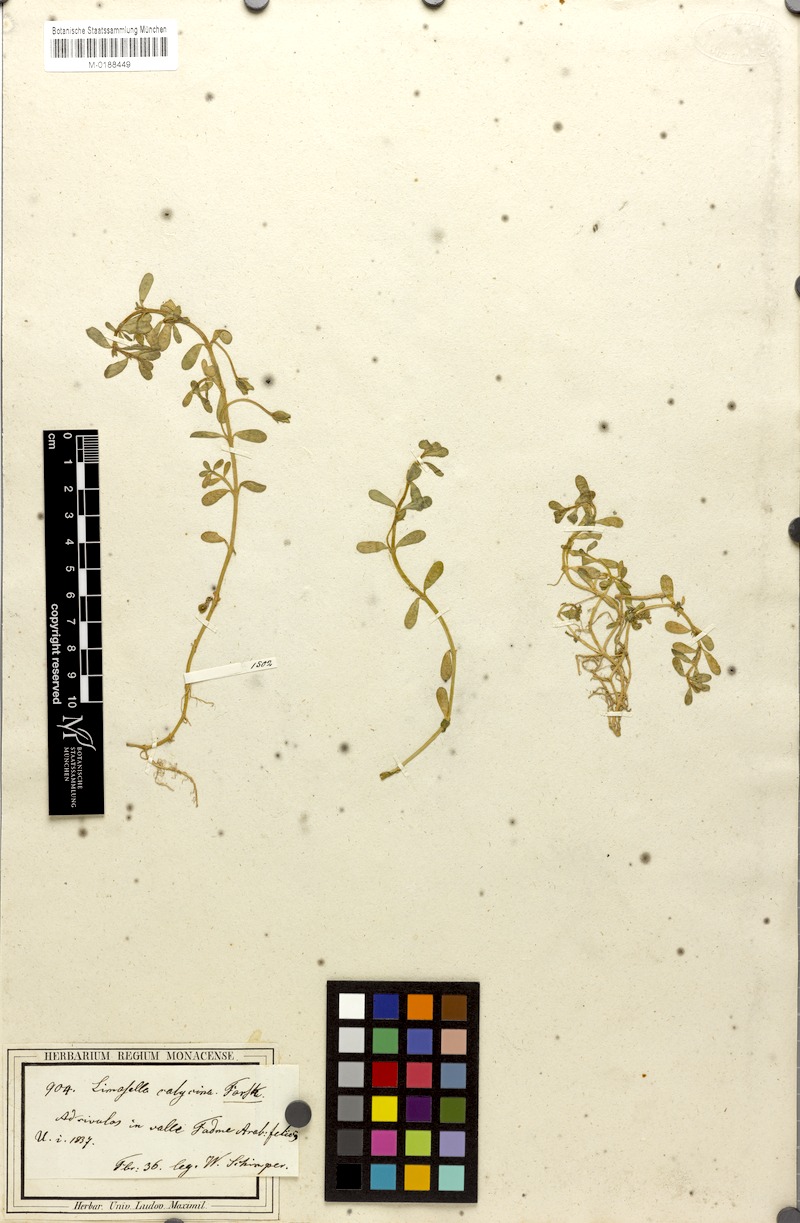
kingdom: Plantae
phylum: Tracheophyta
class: Magnoliopsida
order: Lamiales
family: Plantaginaceae
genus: Bacopa
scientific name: Bacopa monnieri
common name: Indian-pennywort
